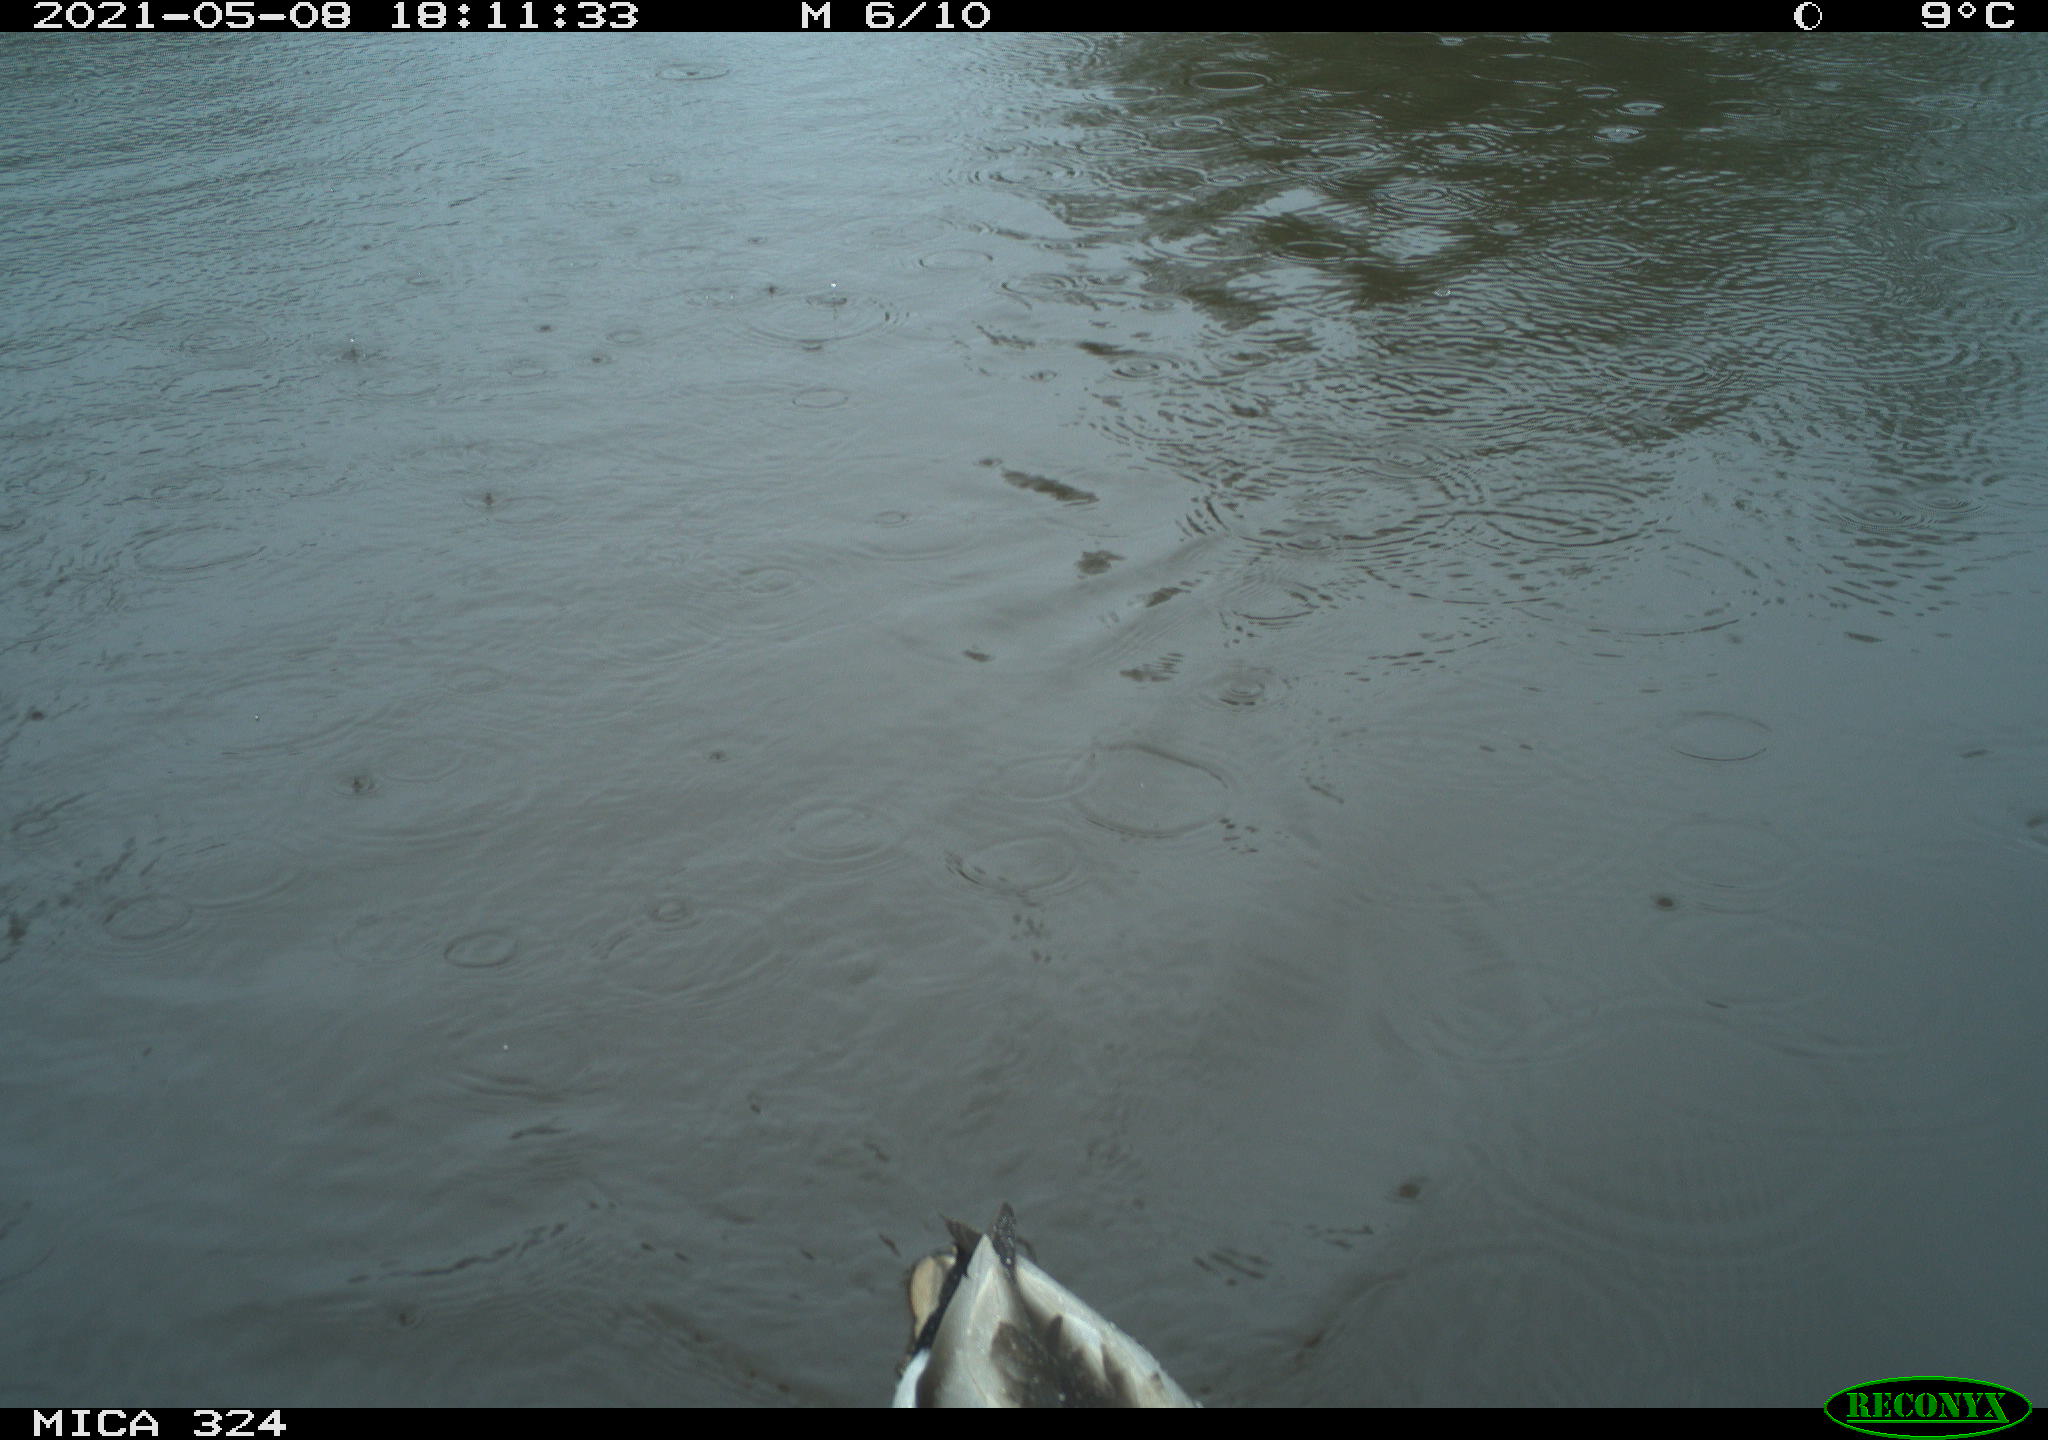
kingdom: Animalia
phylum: Chordata
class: Aves
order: Anseriformes
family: Anatidae
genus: Anas
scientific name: Anas platyrhynchos
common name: Mallard
